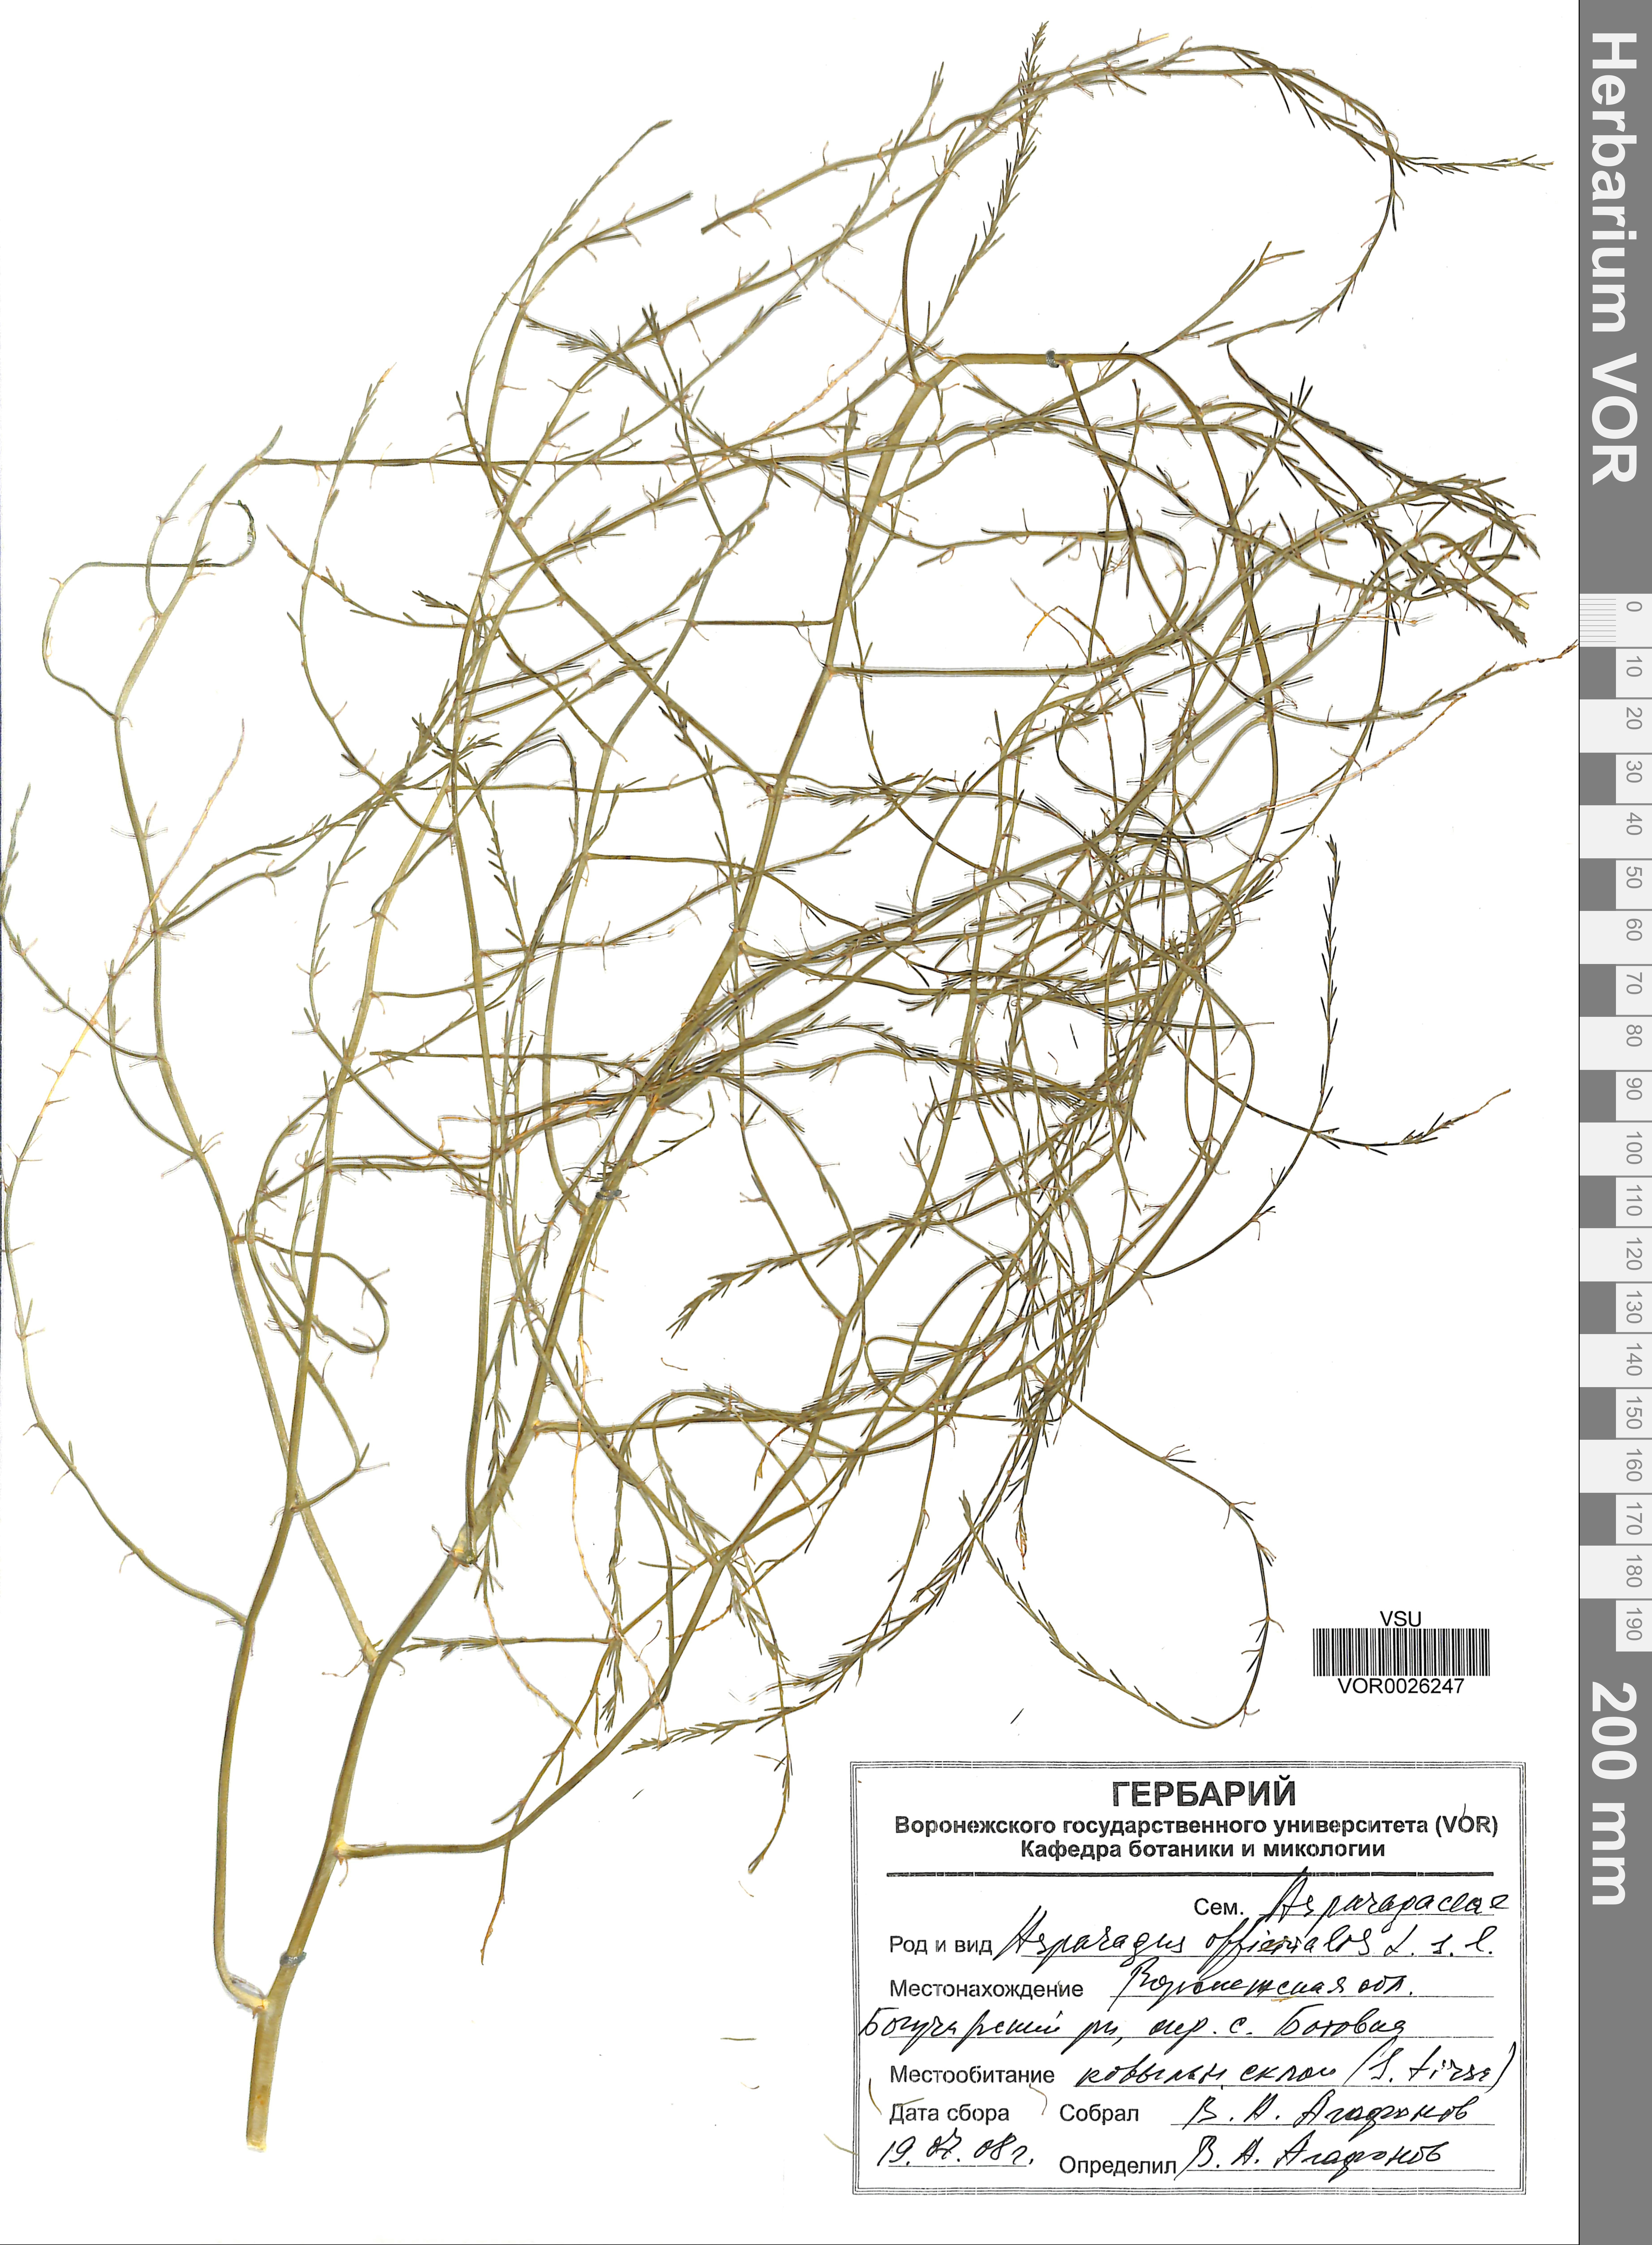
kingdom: Plantae
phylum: Tracheophyta
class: Liliopsida
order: Asparagales
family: Asparagaceae
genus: Asparagus
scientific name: Asparagus officinalis
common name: Garden asparagus
